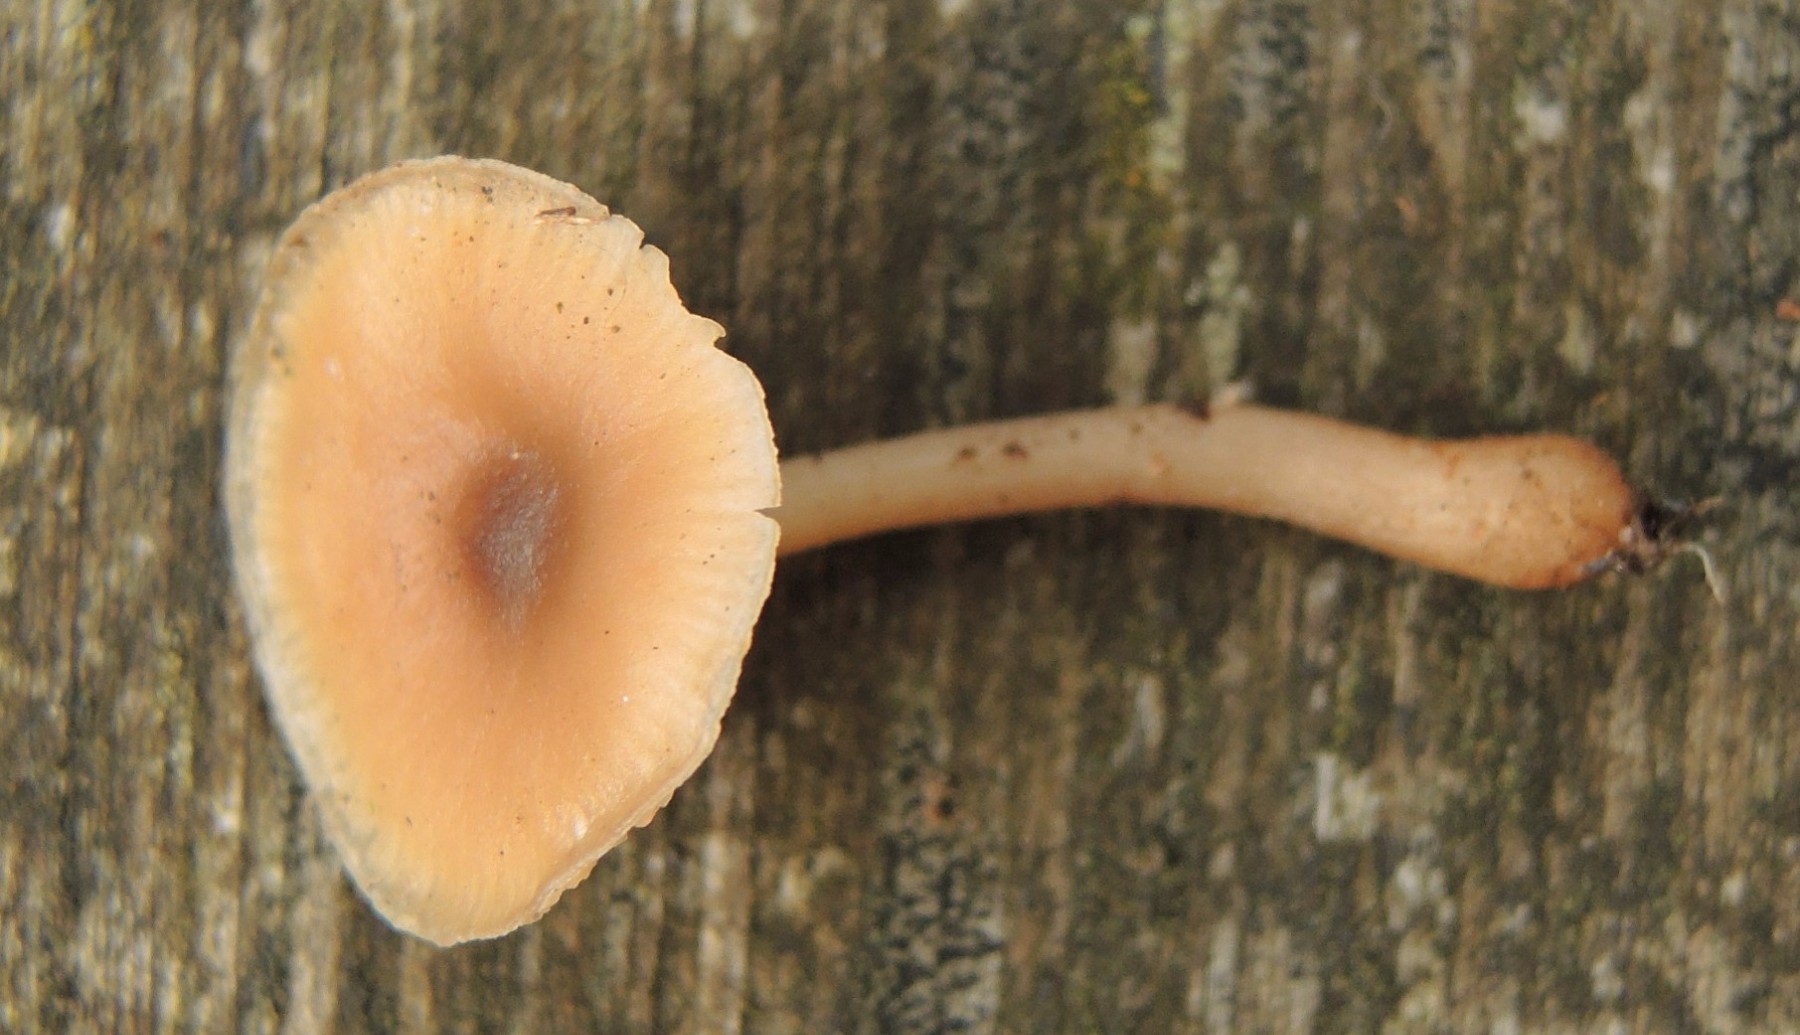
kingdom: Fungi
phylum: Basidiomycota
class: Agaricomycetes
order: Agaricales
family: Tricholomataceae
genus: Clitocybe
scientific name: Clitocybe obsoleta
